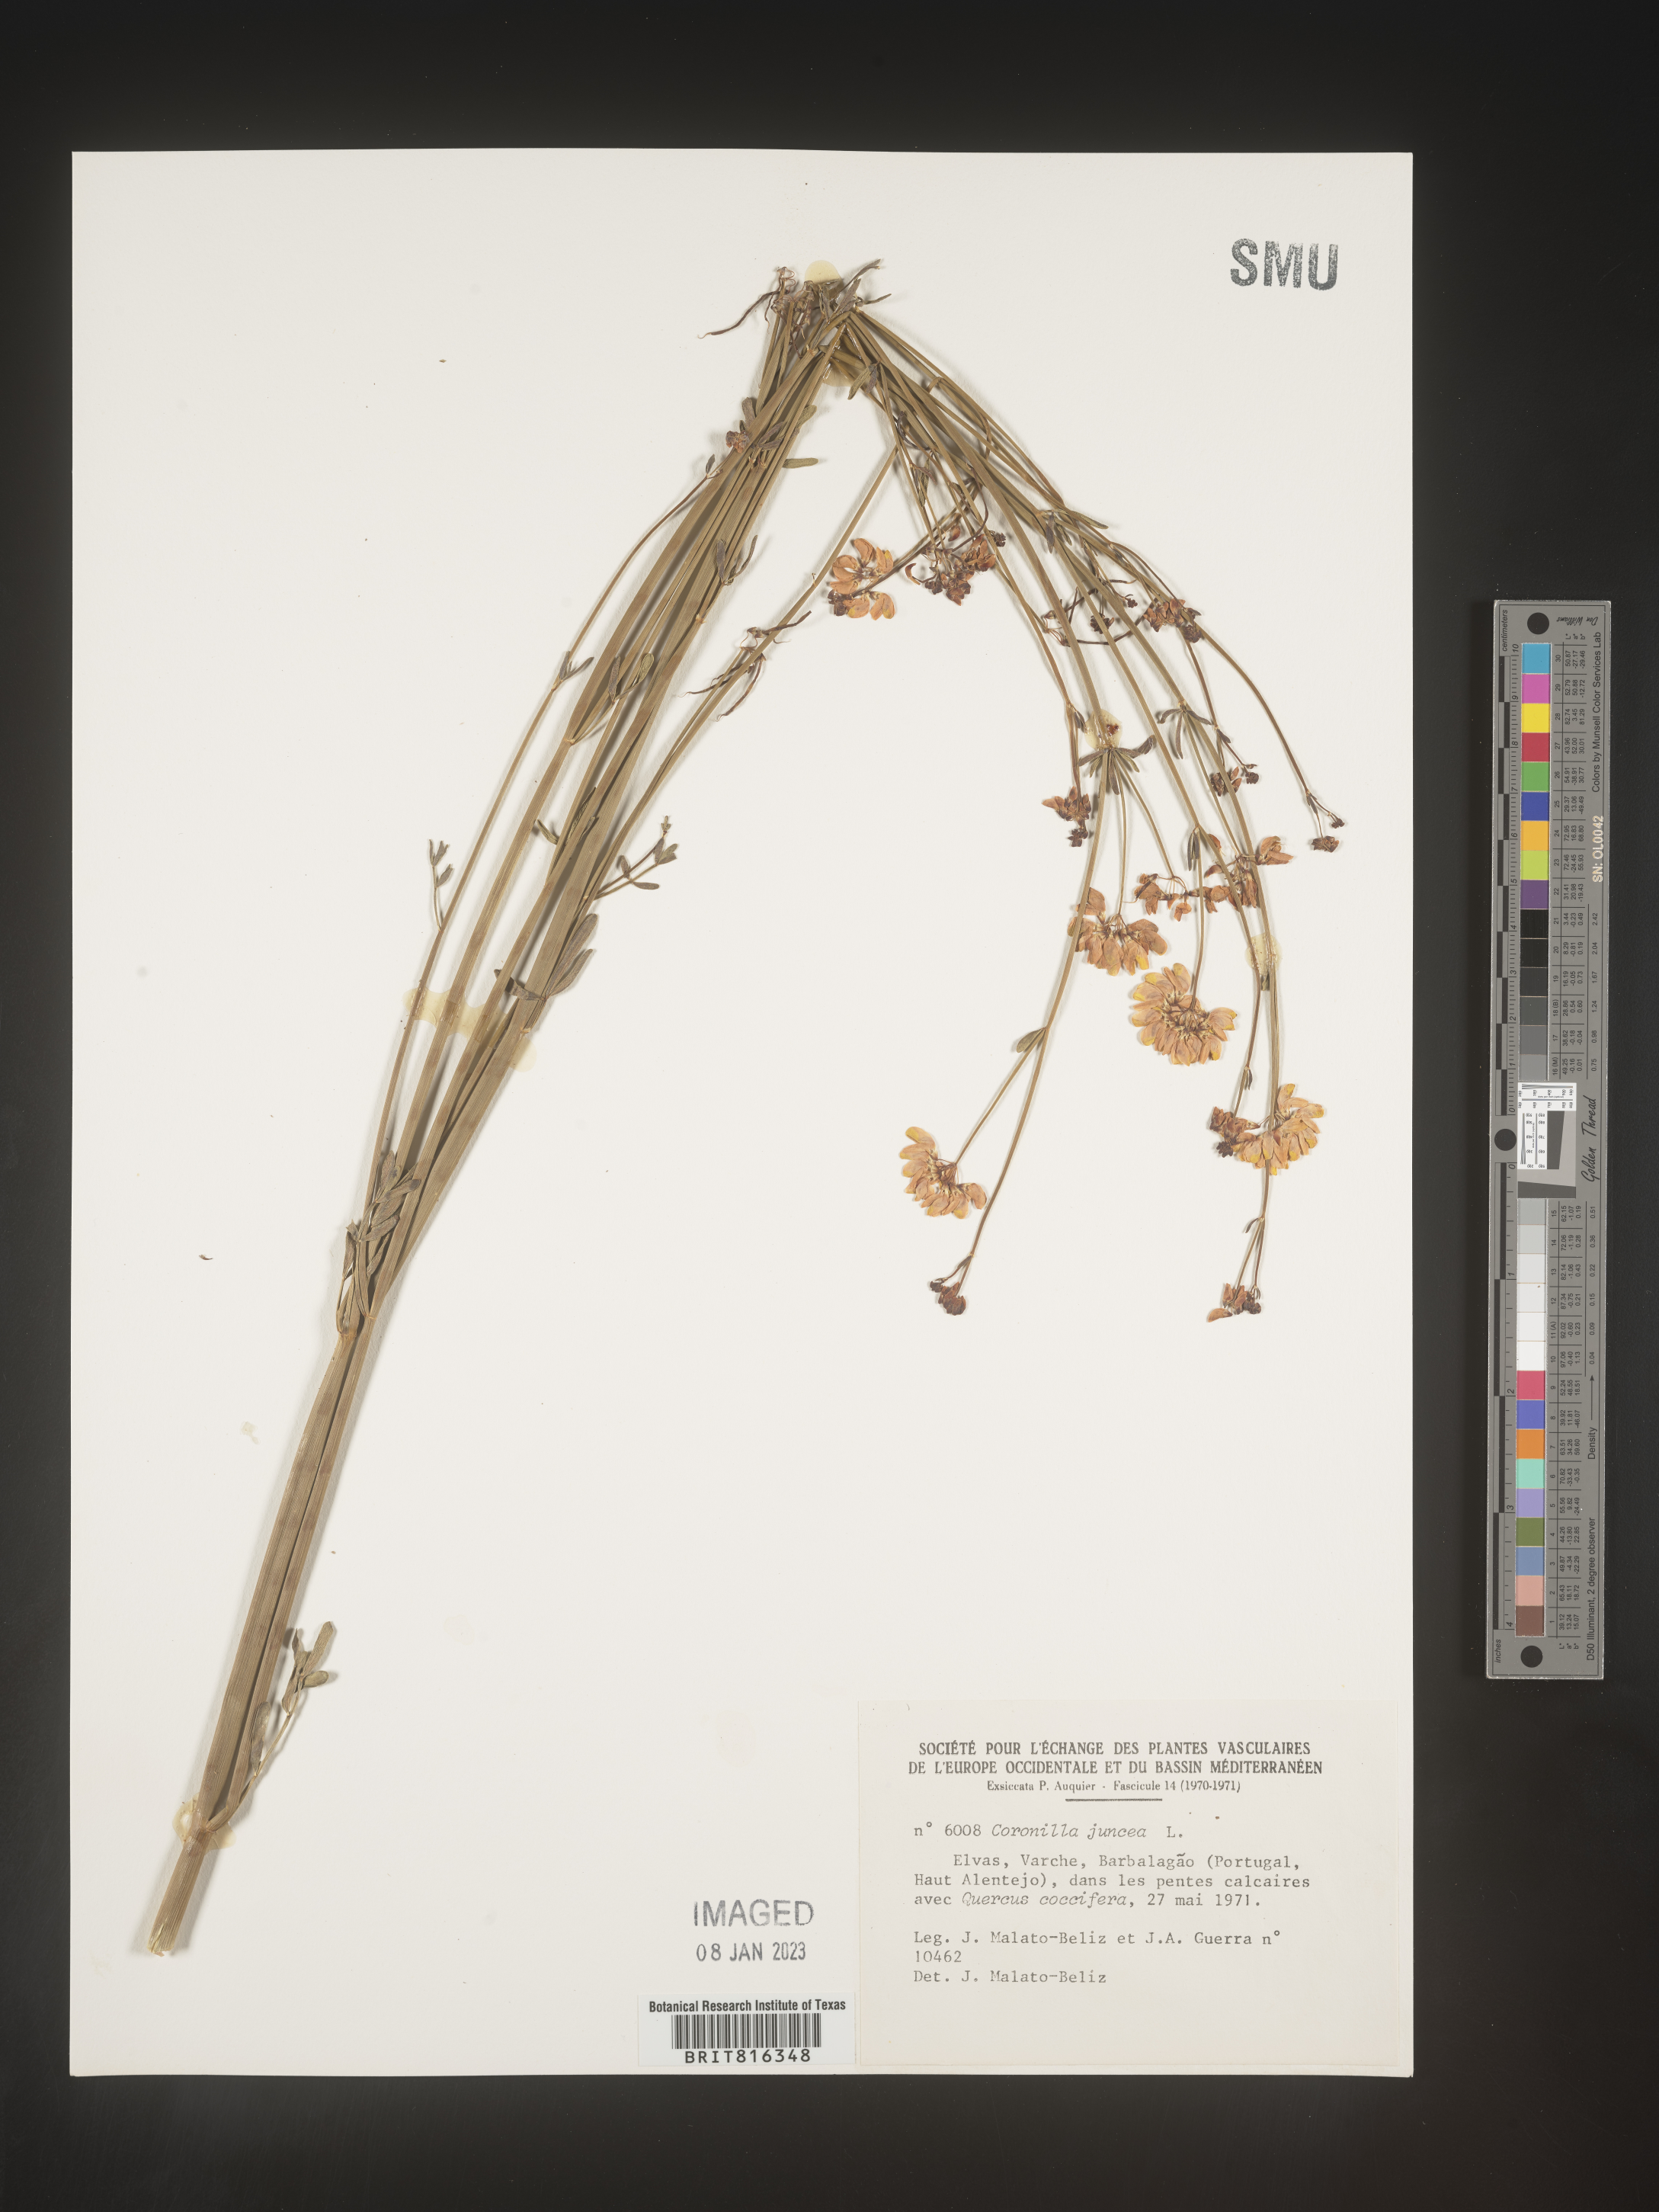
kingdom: Plantae
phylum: Tracheophyta
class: Magnoliopsida
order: Fabales
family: Fabaceae
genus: Coronilla
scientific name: Coronilla
